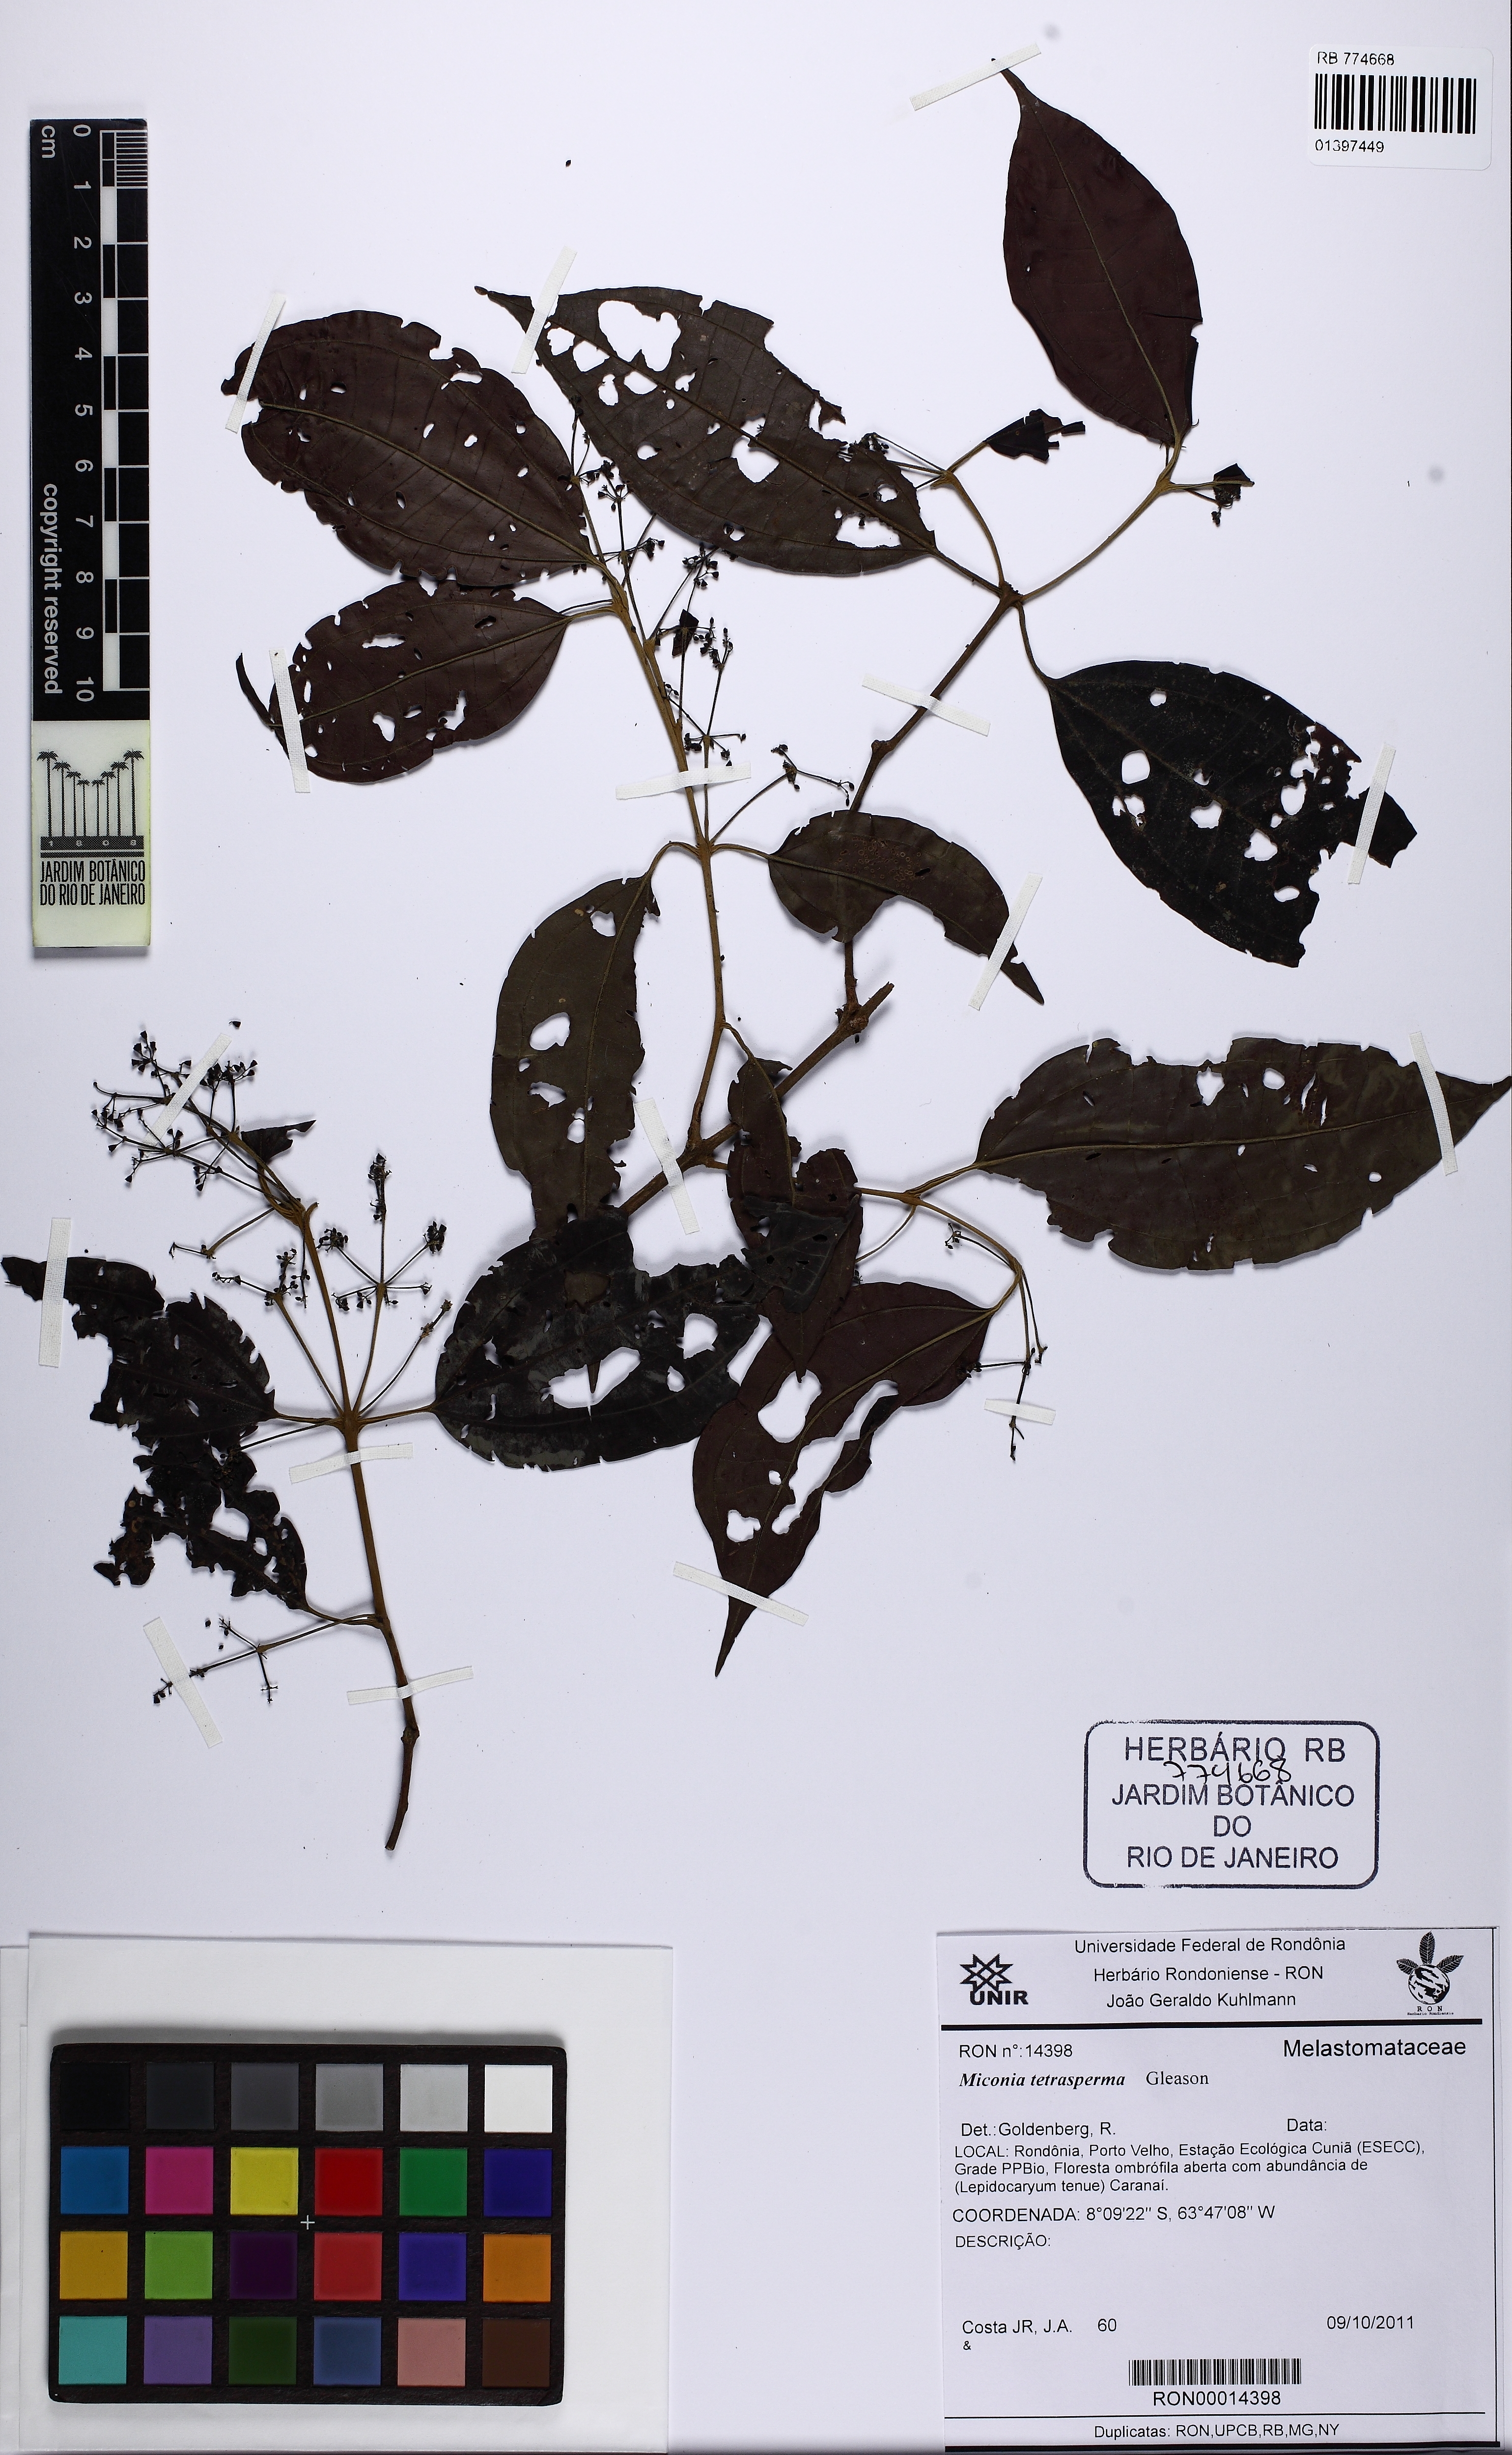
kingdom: Plantae
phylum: Tracheophyta
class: Magnoliopsida
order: Myrtales
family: Melastomataceae
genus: Miconia
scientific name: Miconia tetrasperma
